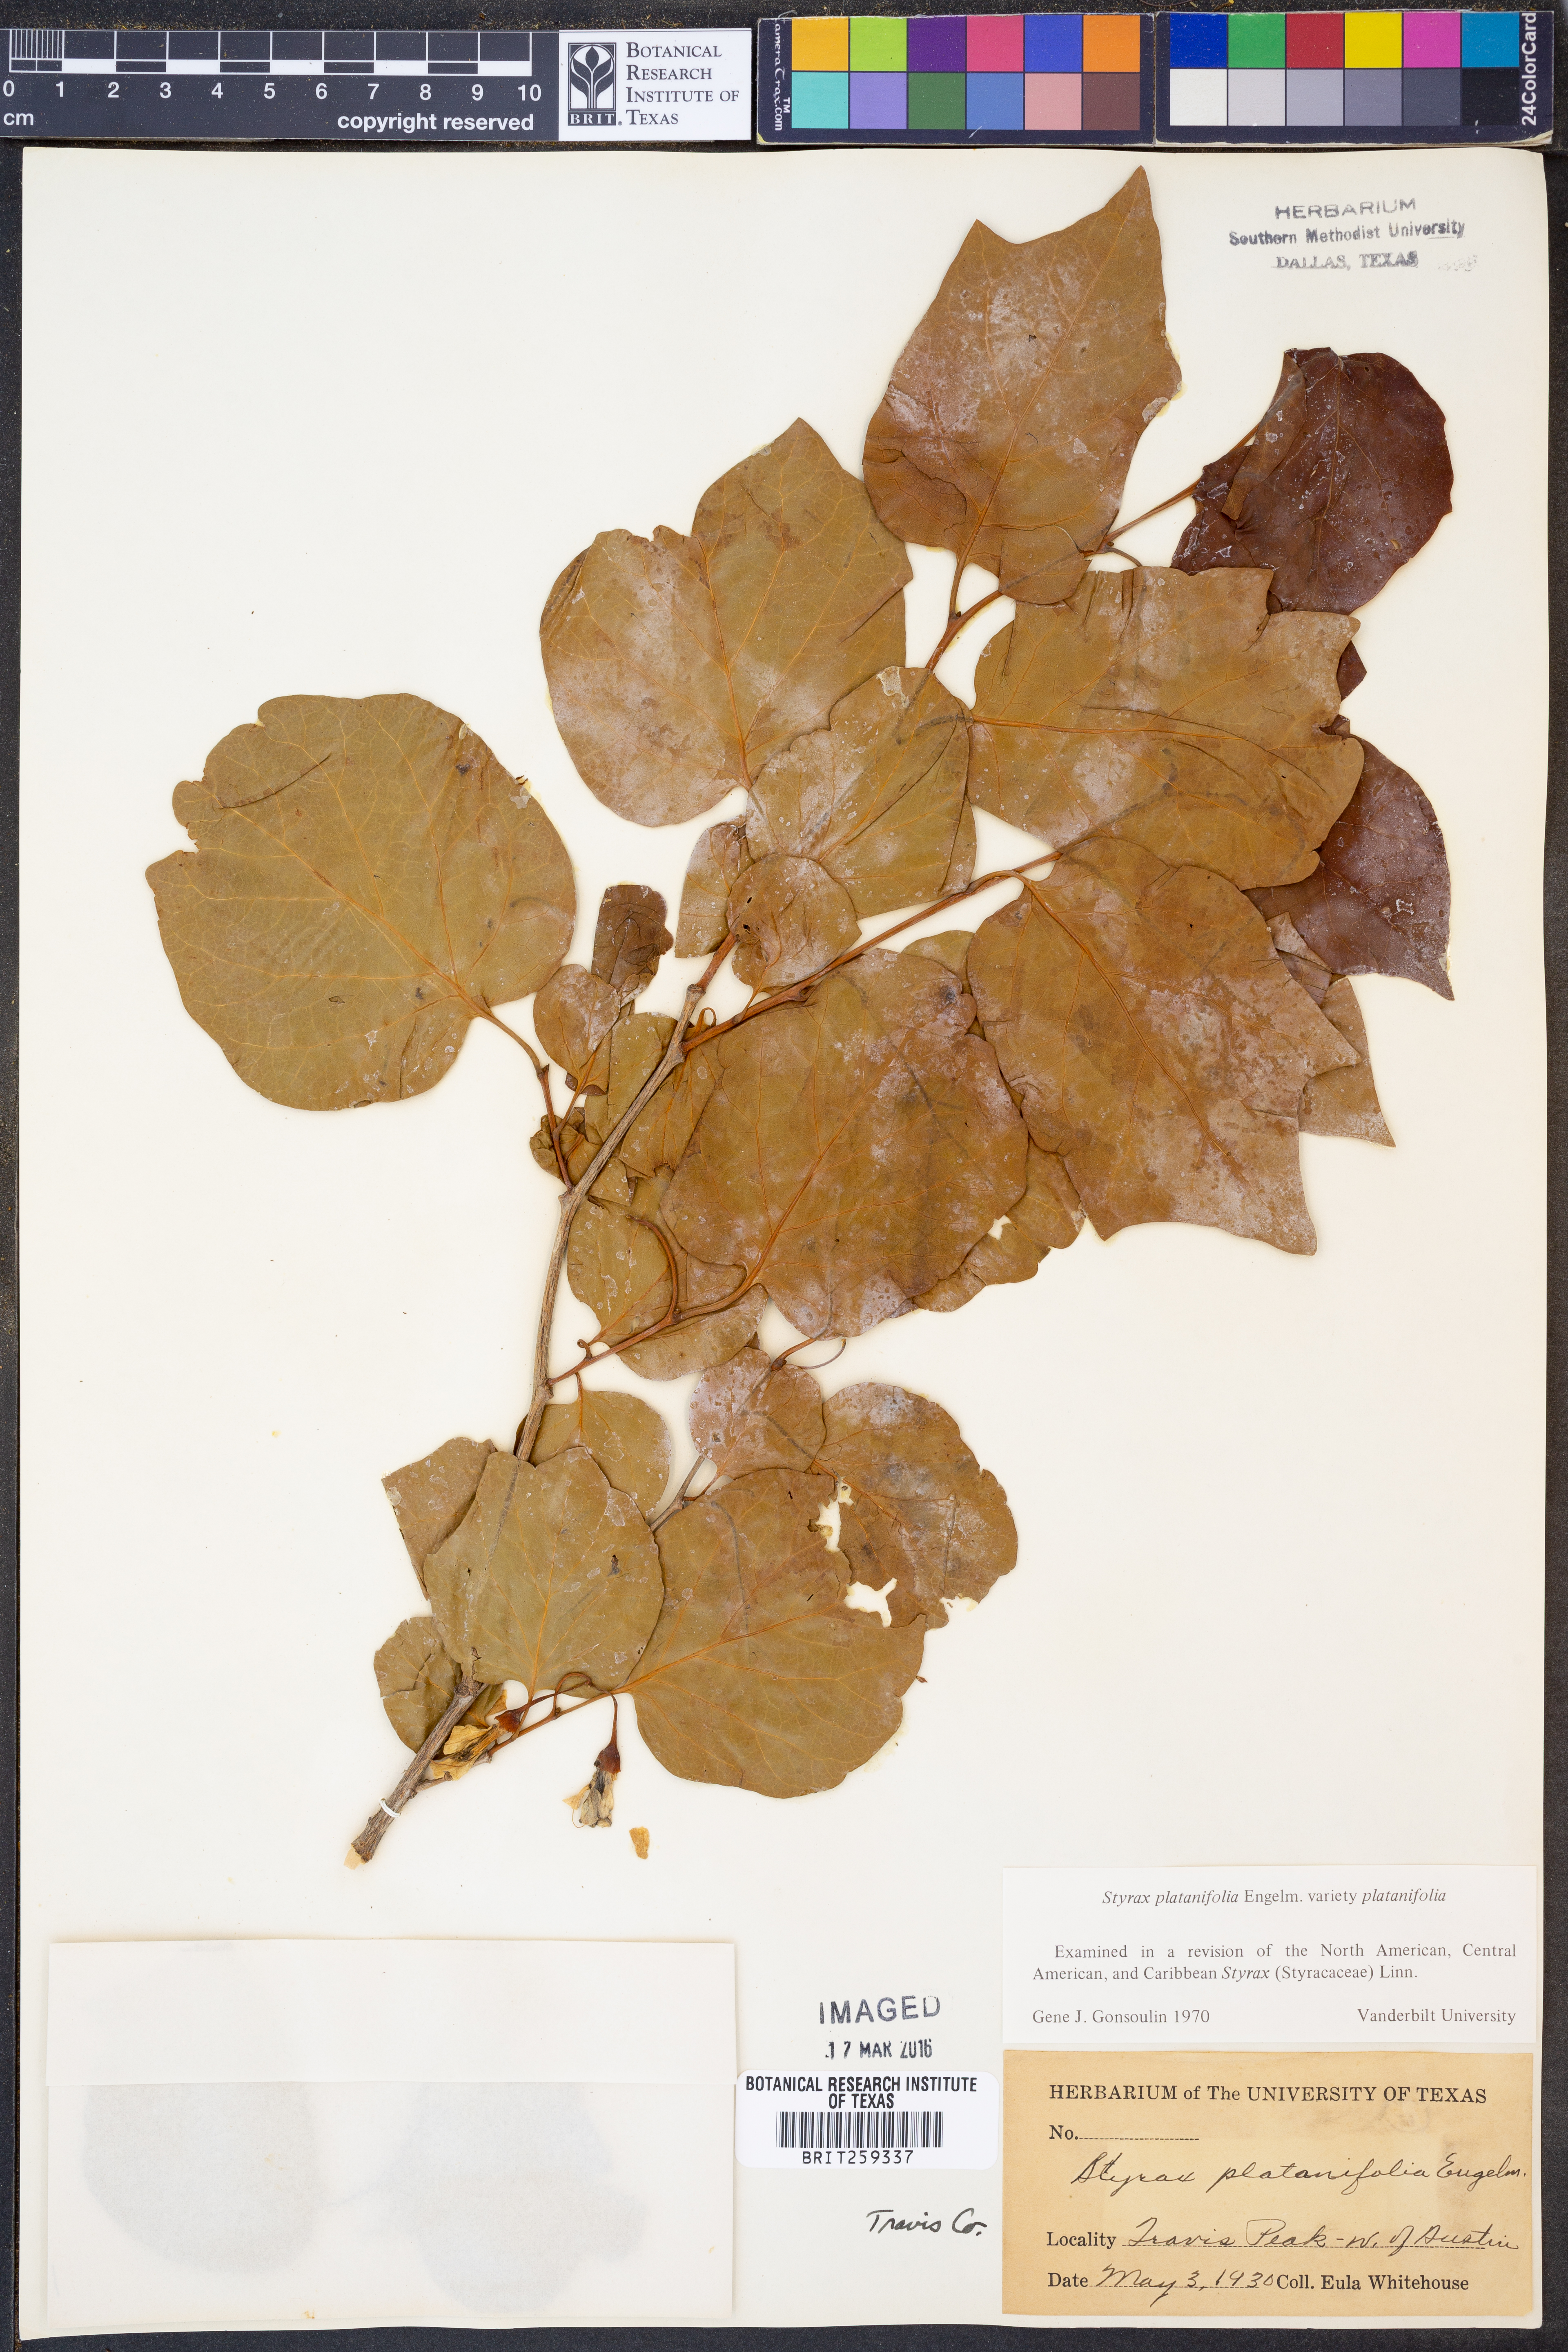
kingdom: Plantae
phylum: Tracheophyta
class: Magnoliopsida
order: Ericales
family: Styracaceae
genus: Styrax
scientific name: Styrax platanifolius
